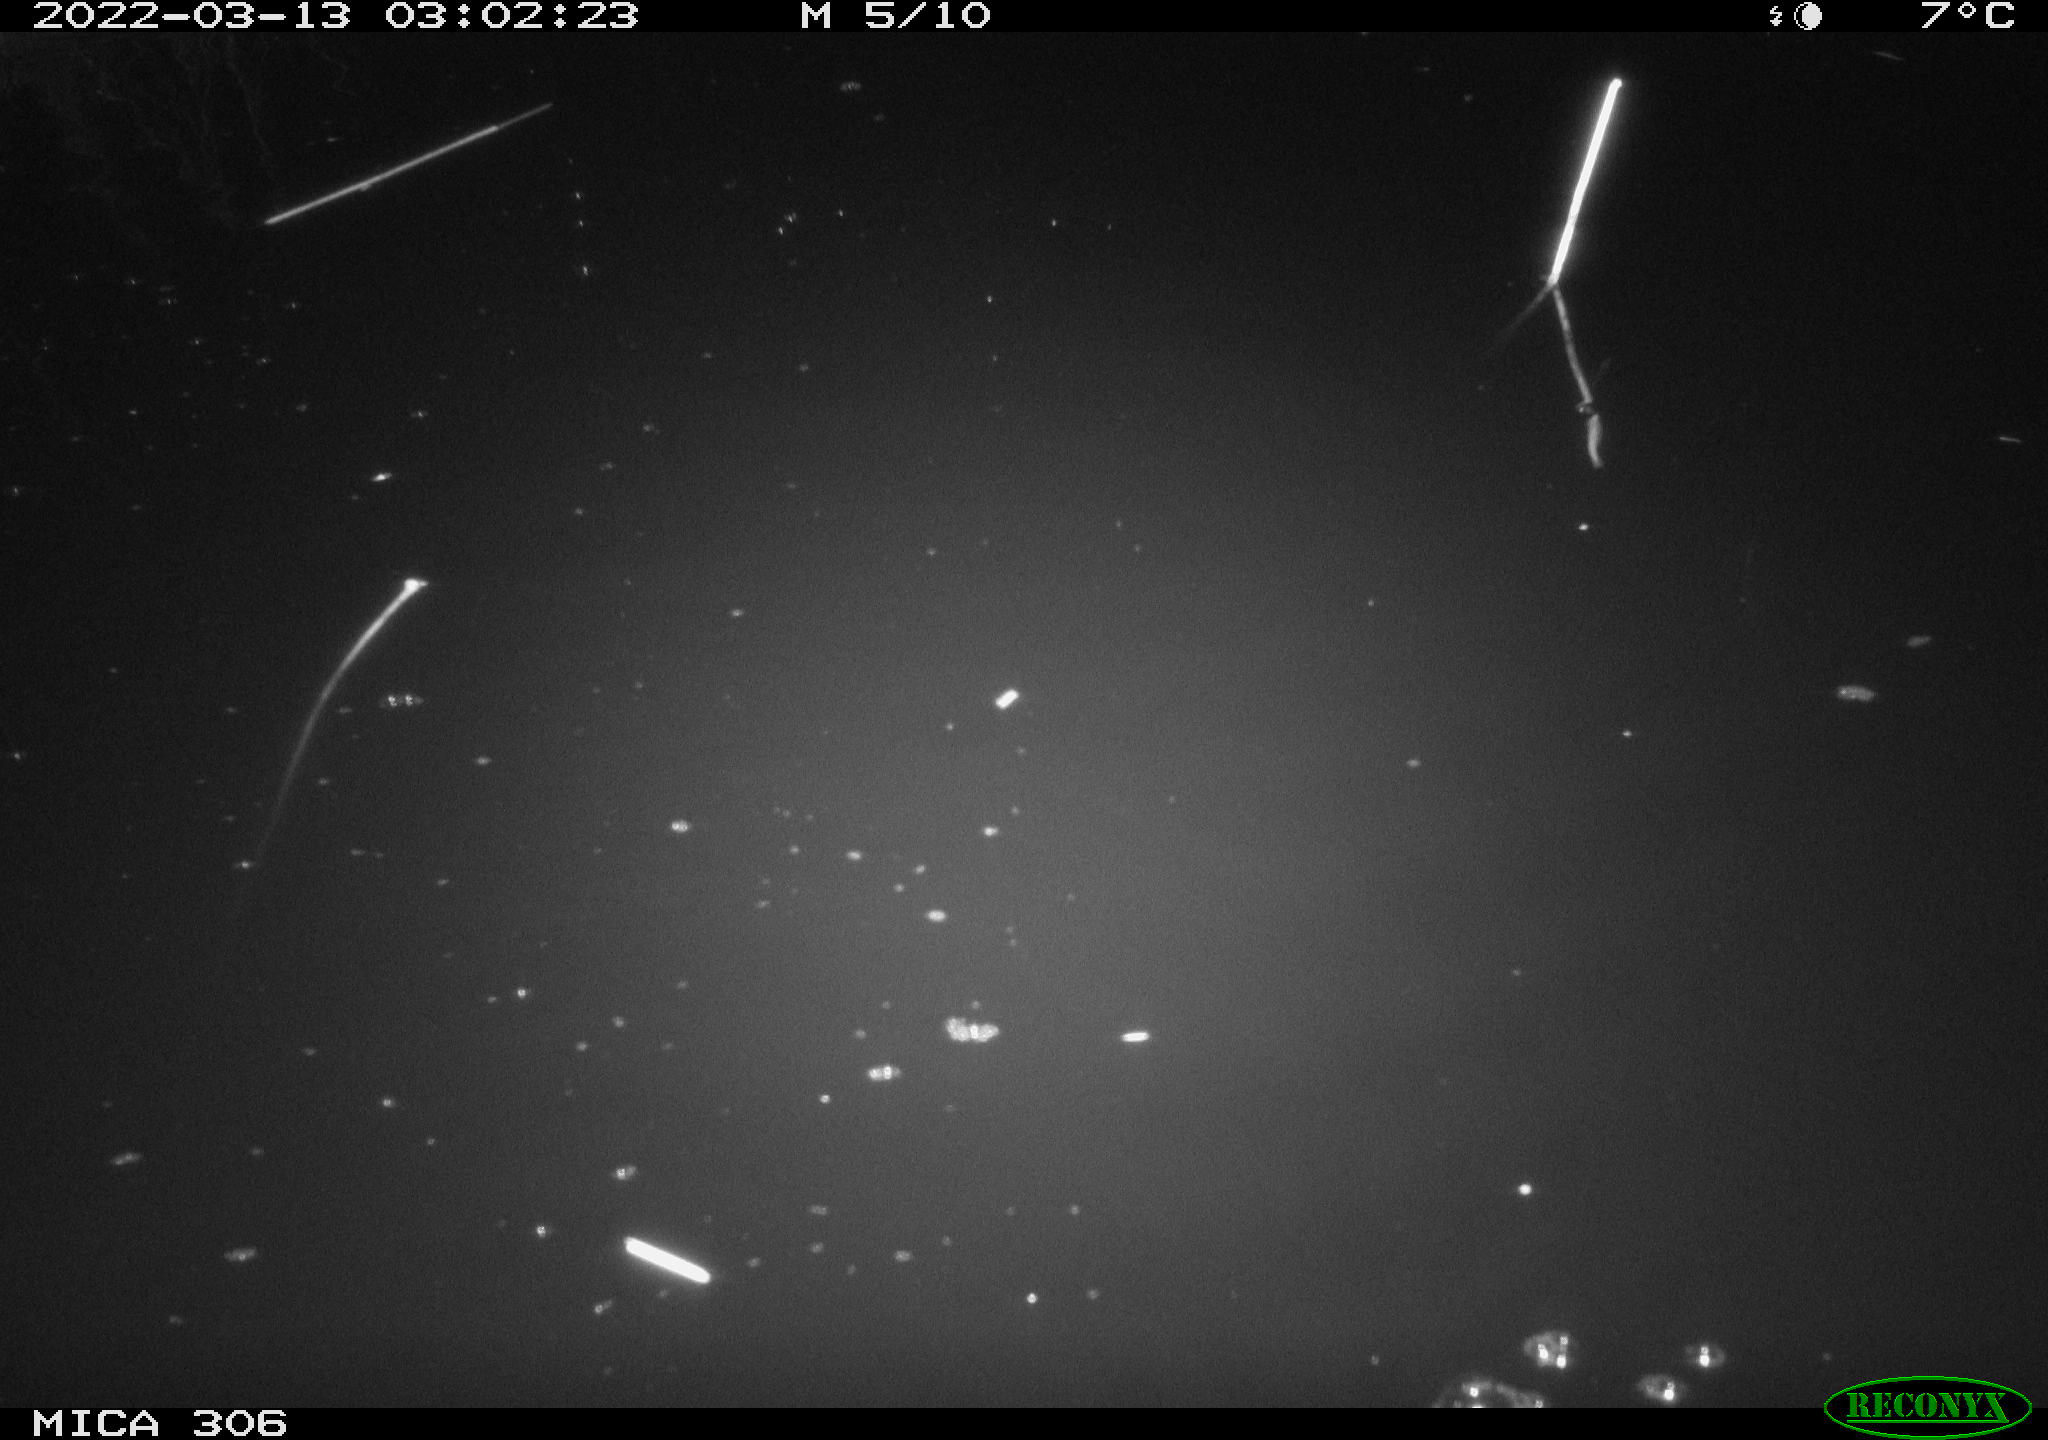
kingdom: Animalia
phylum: Chordata
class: Mammalia
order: Rodentia
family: Muridae
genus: Rattus
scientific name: Rattus norvegicus
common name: Brown rat
